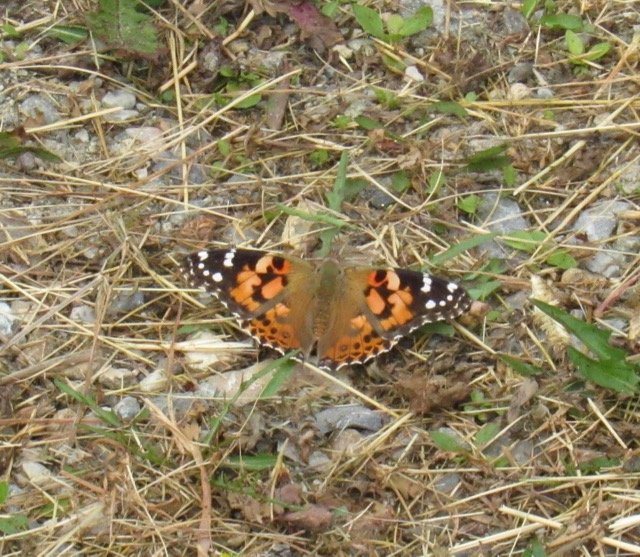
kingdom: Animalia
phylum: Arthropoda
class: Insecta
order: Lepidoptera
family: Nymphalidae
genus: Vanessa
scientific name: Vanessa cardui
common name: Painted Lady
